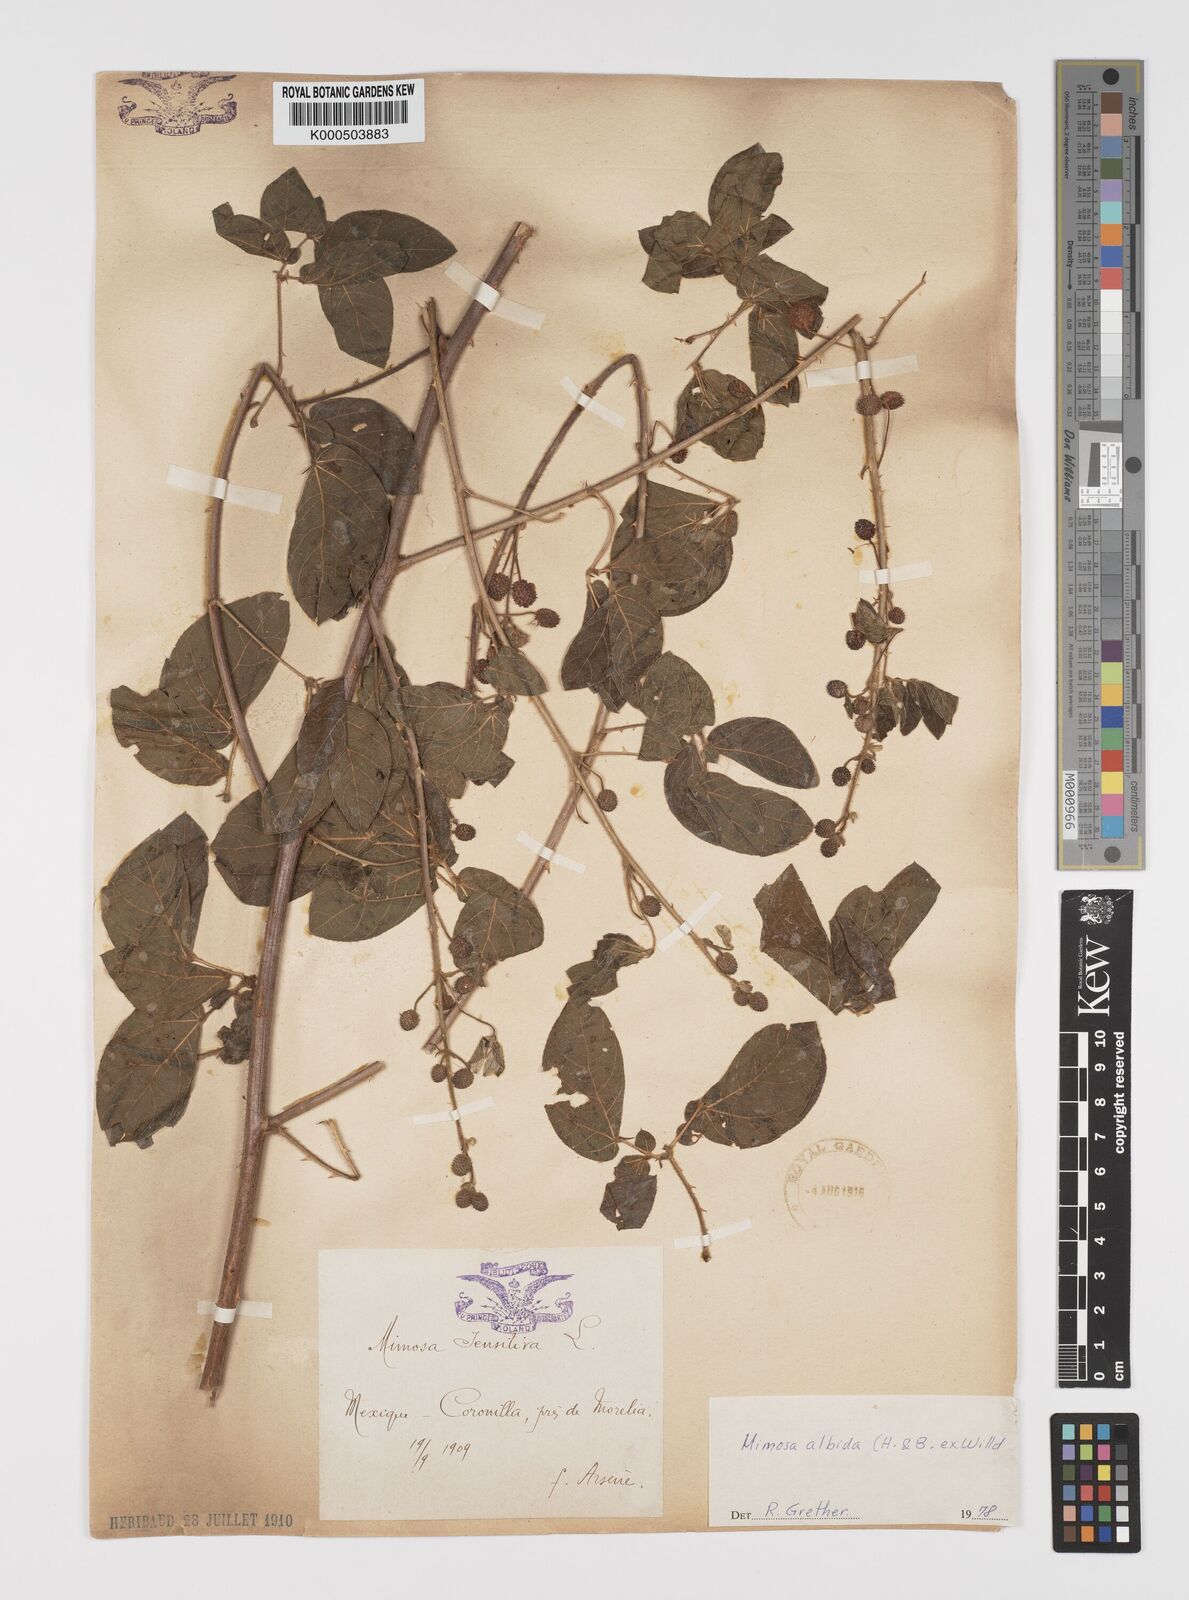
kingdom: Plantae
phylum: Tracheophyta
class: Magnoliopsida
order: Fabales
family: Fabaceae
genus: Mimosa
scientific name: Mimosa albida
